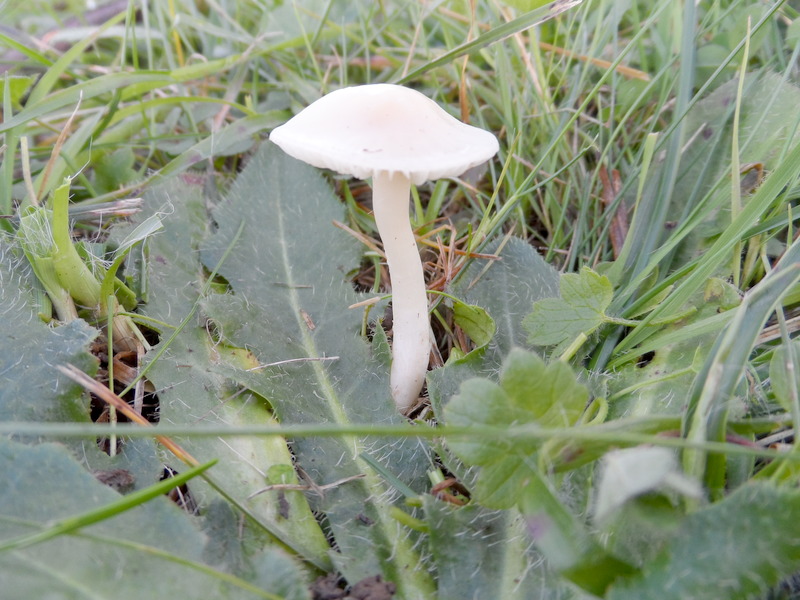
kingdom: Fungi
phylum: Basidiomycota
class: Agaricomycetes
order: Agaricales
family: Hygrophoraceae
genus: Cuphophyllus
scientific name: Cuphophyllus virgineus
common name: Snowy waxcap
